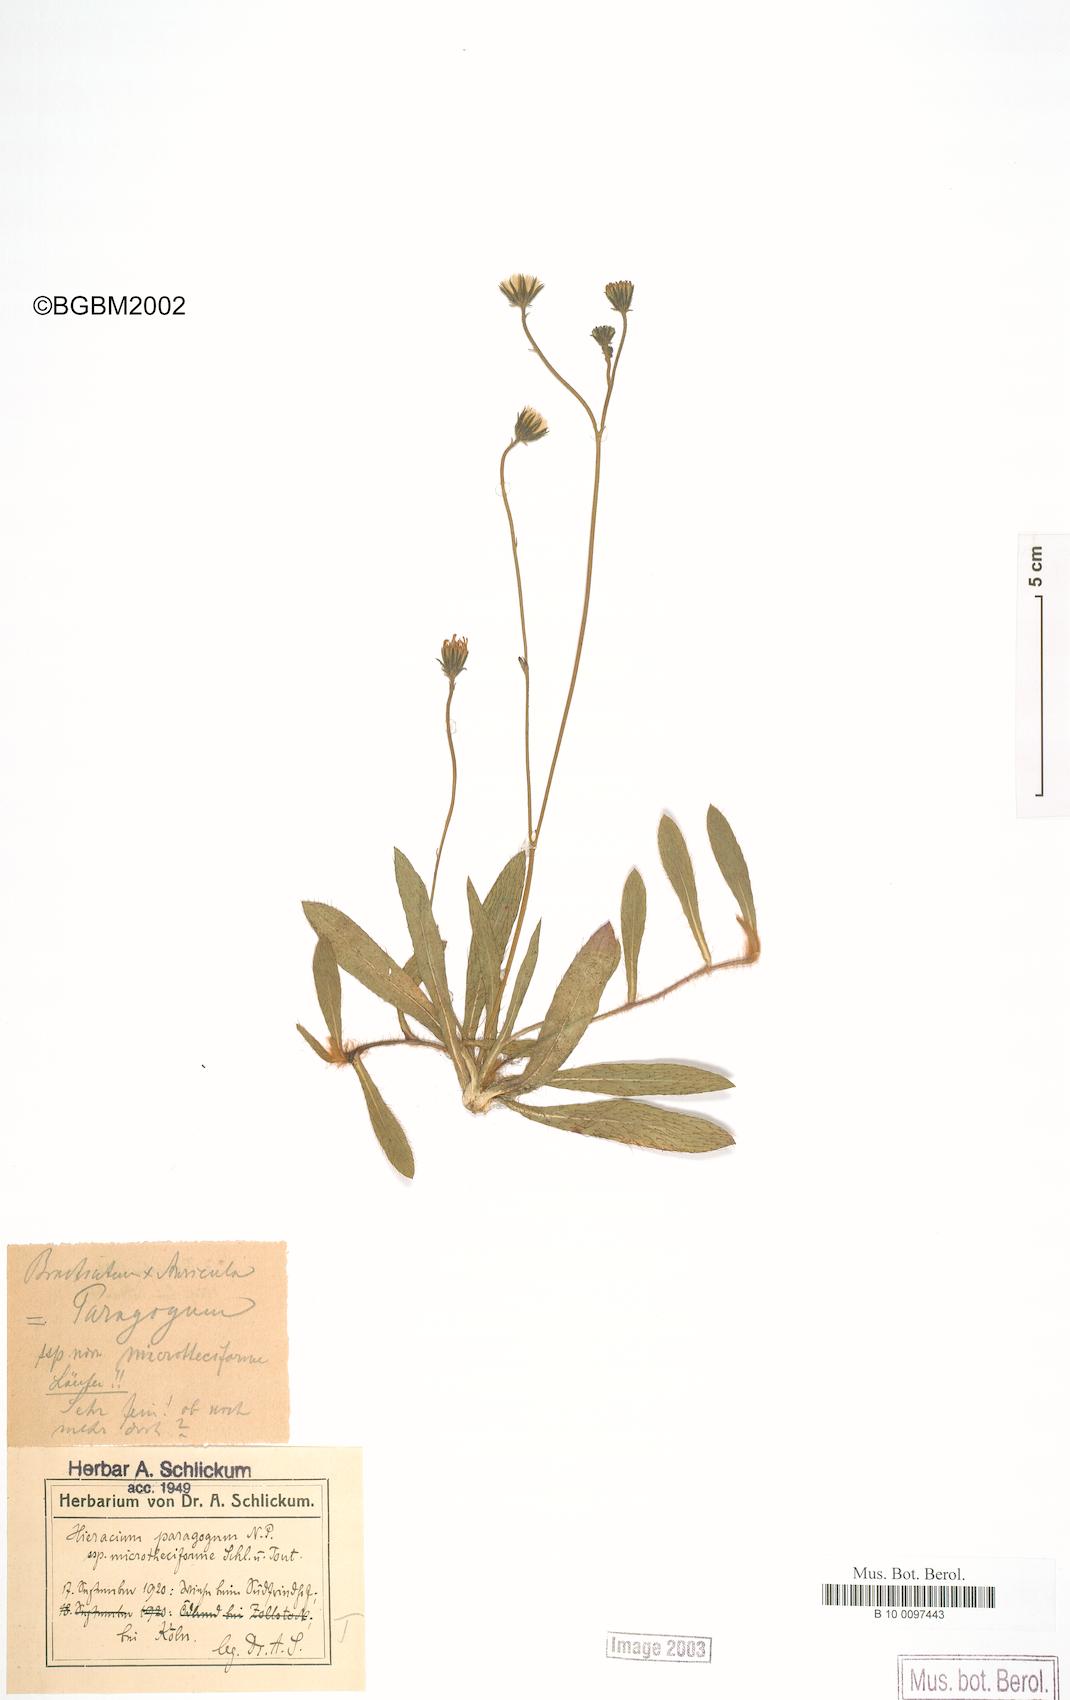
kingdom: Plantae
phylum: Tracheophyta
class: Magnoliopsida
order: Asterales
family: Asteraceae
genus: Pilosella
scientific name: Pilosella paragoga
